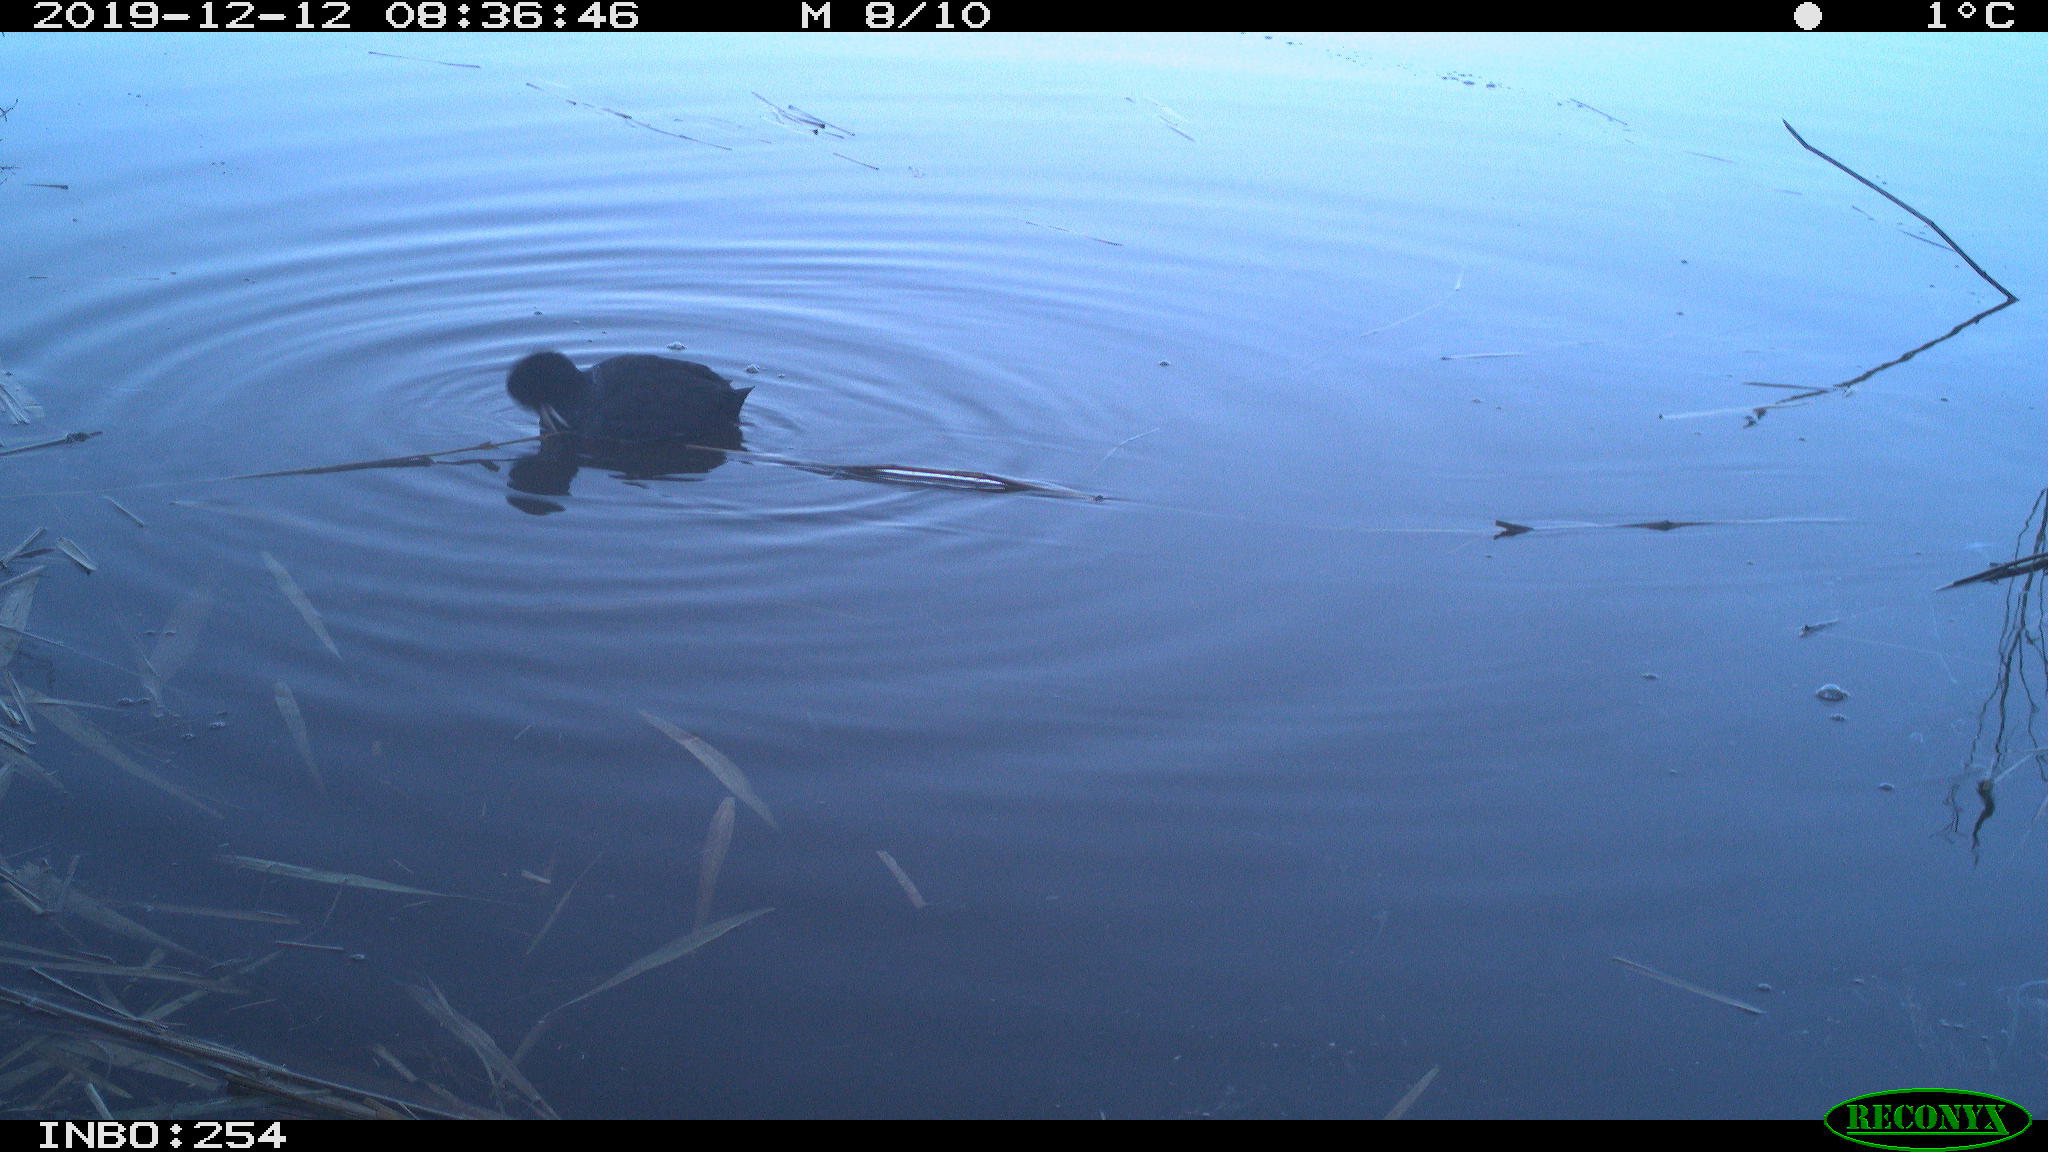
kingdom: Animalia
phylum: Chordata
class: Aves
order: Gruiformes
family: Rallidae
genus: Fulica
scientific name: Fulica atra
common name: Eurasian coot
